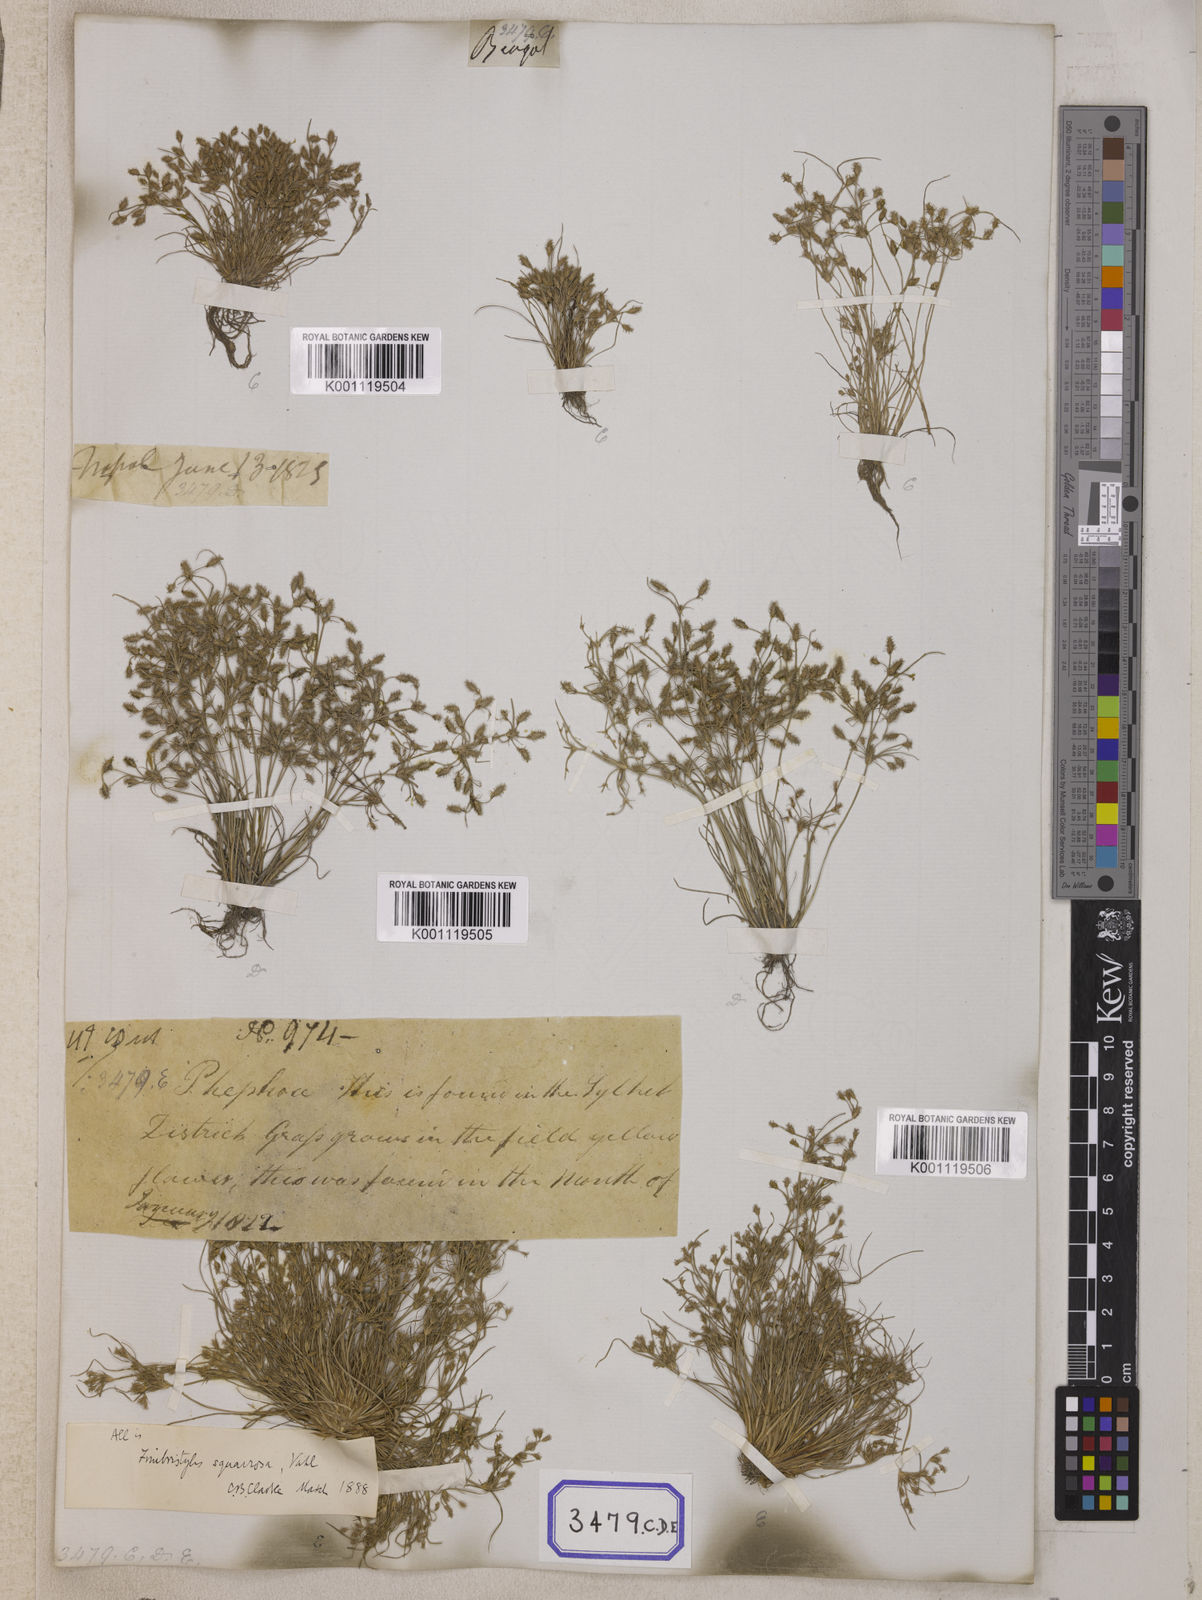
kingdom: Plantae
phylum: Tracheophyta
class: Liliopsida
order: Poales
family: Cyperaceae
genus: Isolepis
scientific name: Isolepis
